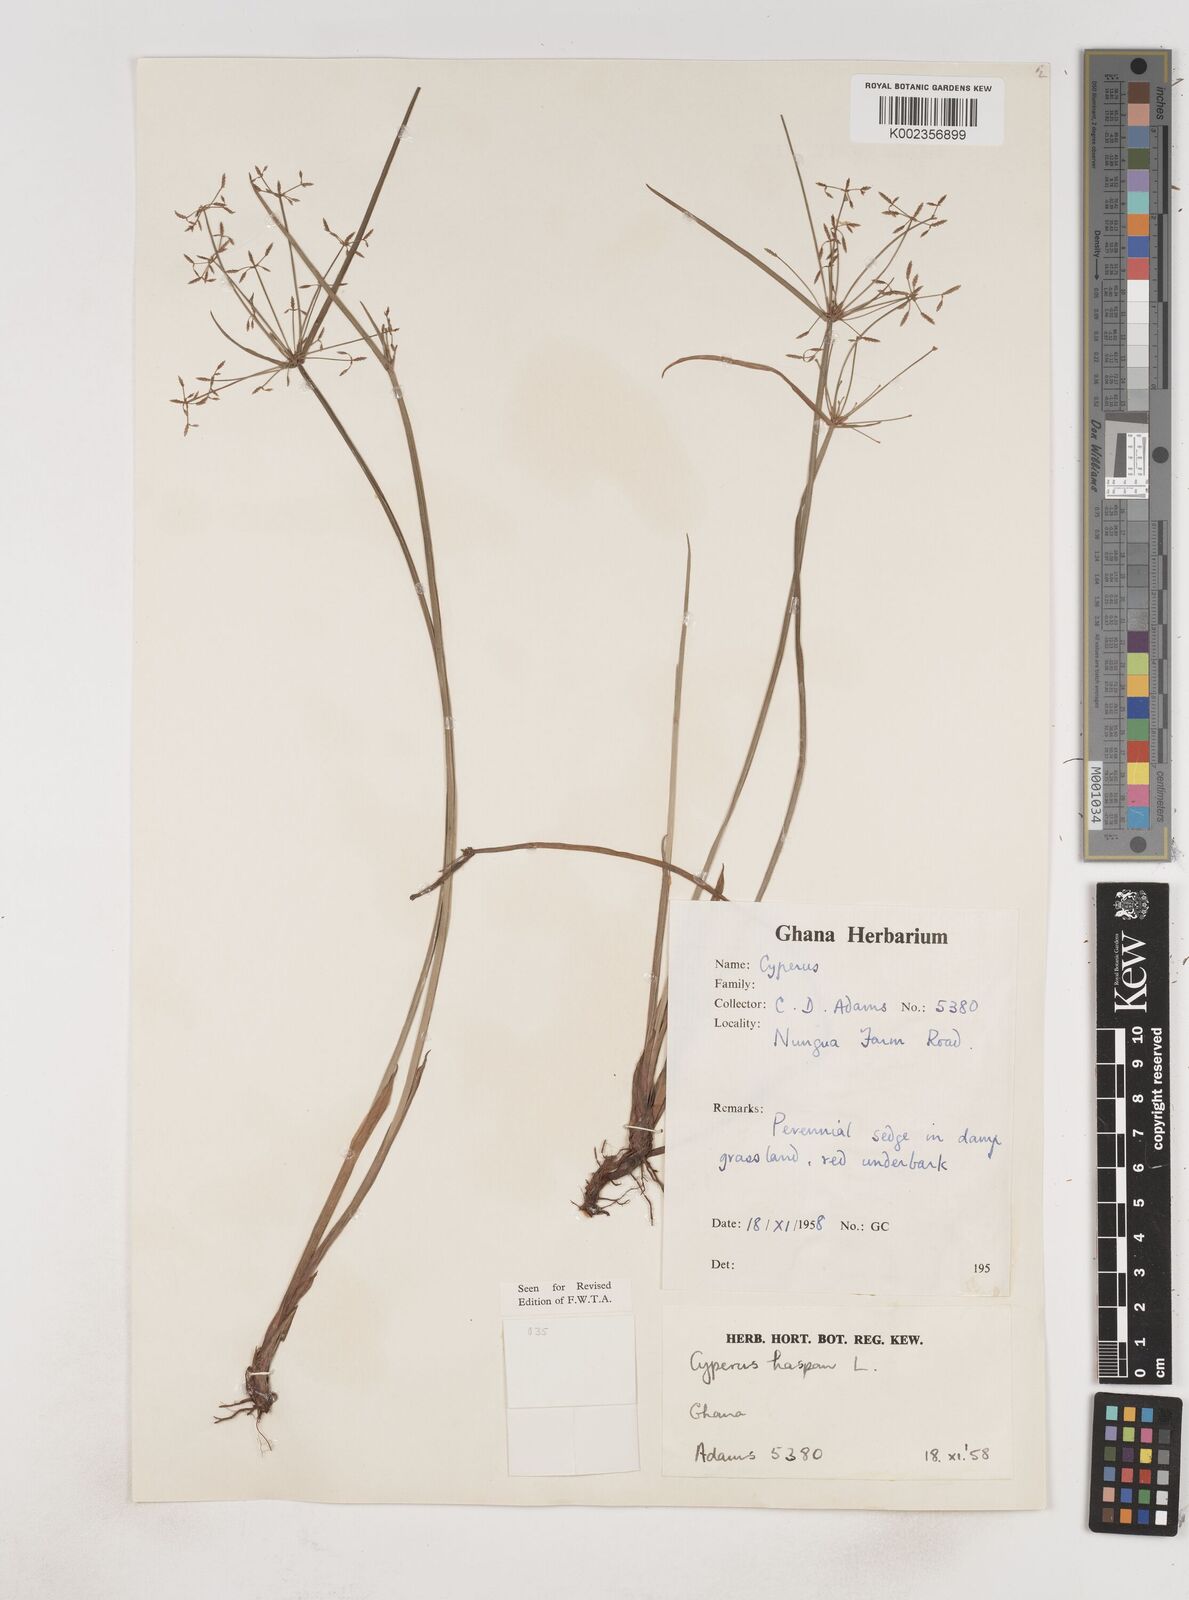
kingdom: Plantae
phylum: Tracheophyta
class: Liliopsida
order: Poales
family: Cyperaceae
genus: Cyperus
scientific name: Cyperus haspan
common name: Haspan flatsedge
